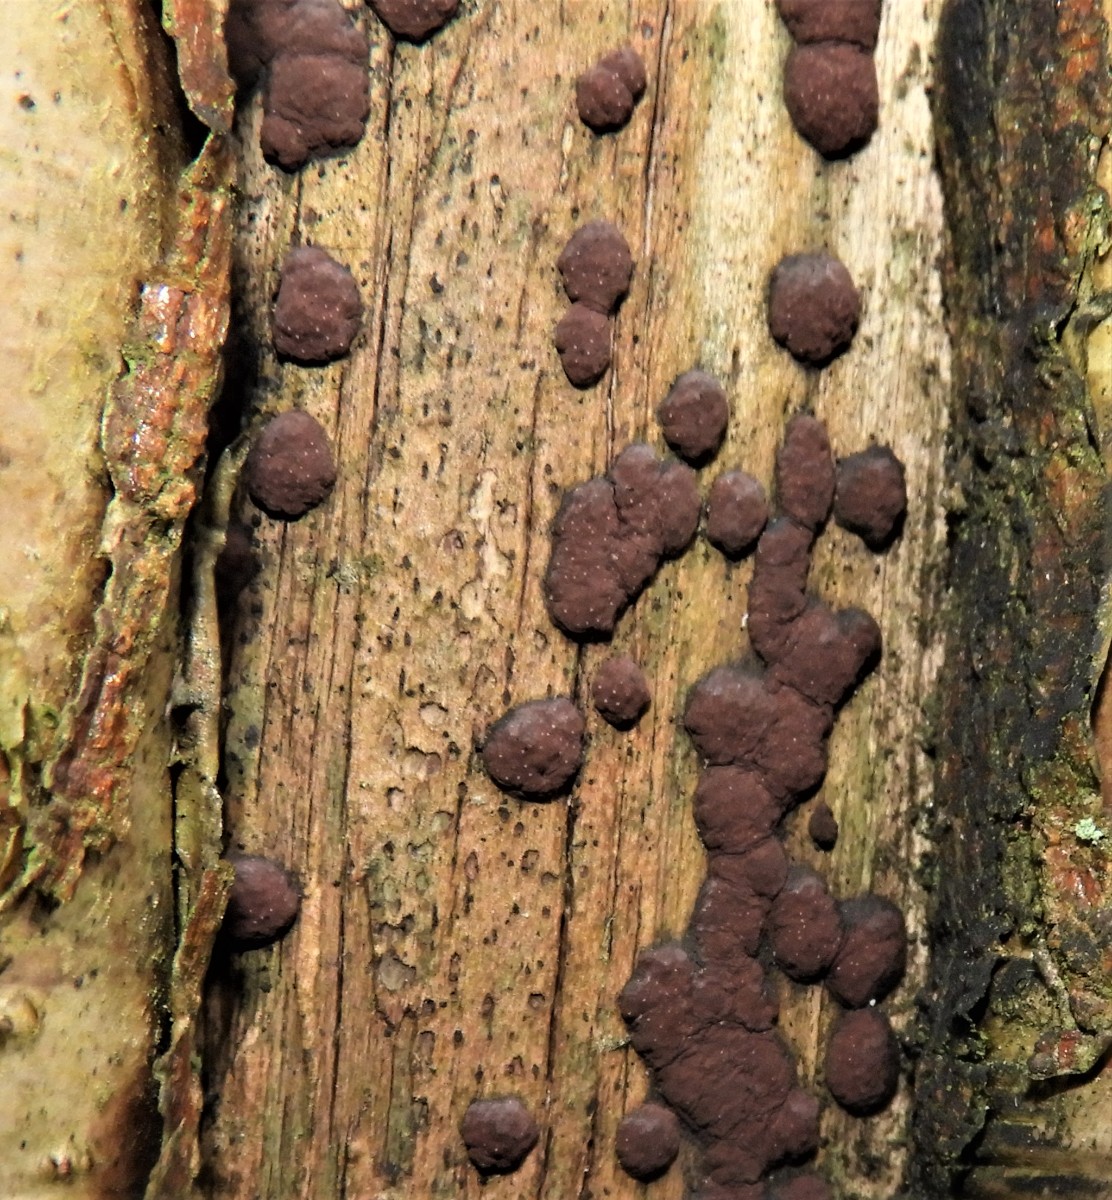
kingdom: Fungi
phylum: Ascomycota
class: Sordariomycetes
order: Xylariales
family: Hypoxylaceae
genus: Hypoxylon
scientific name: Hypoxylon fuscum
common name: kegleformet kulbær
